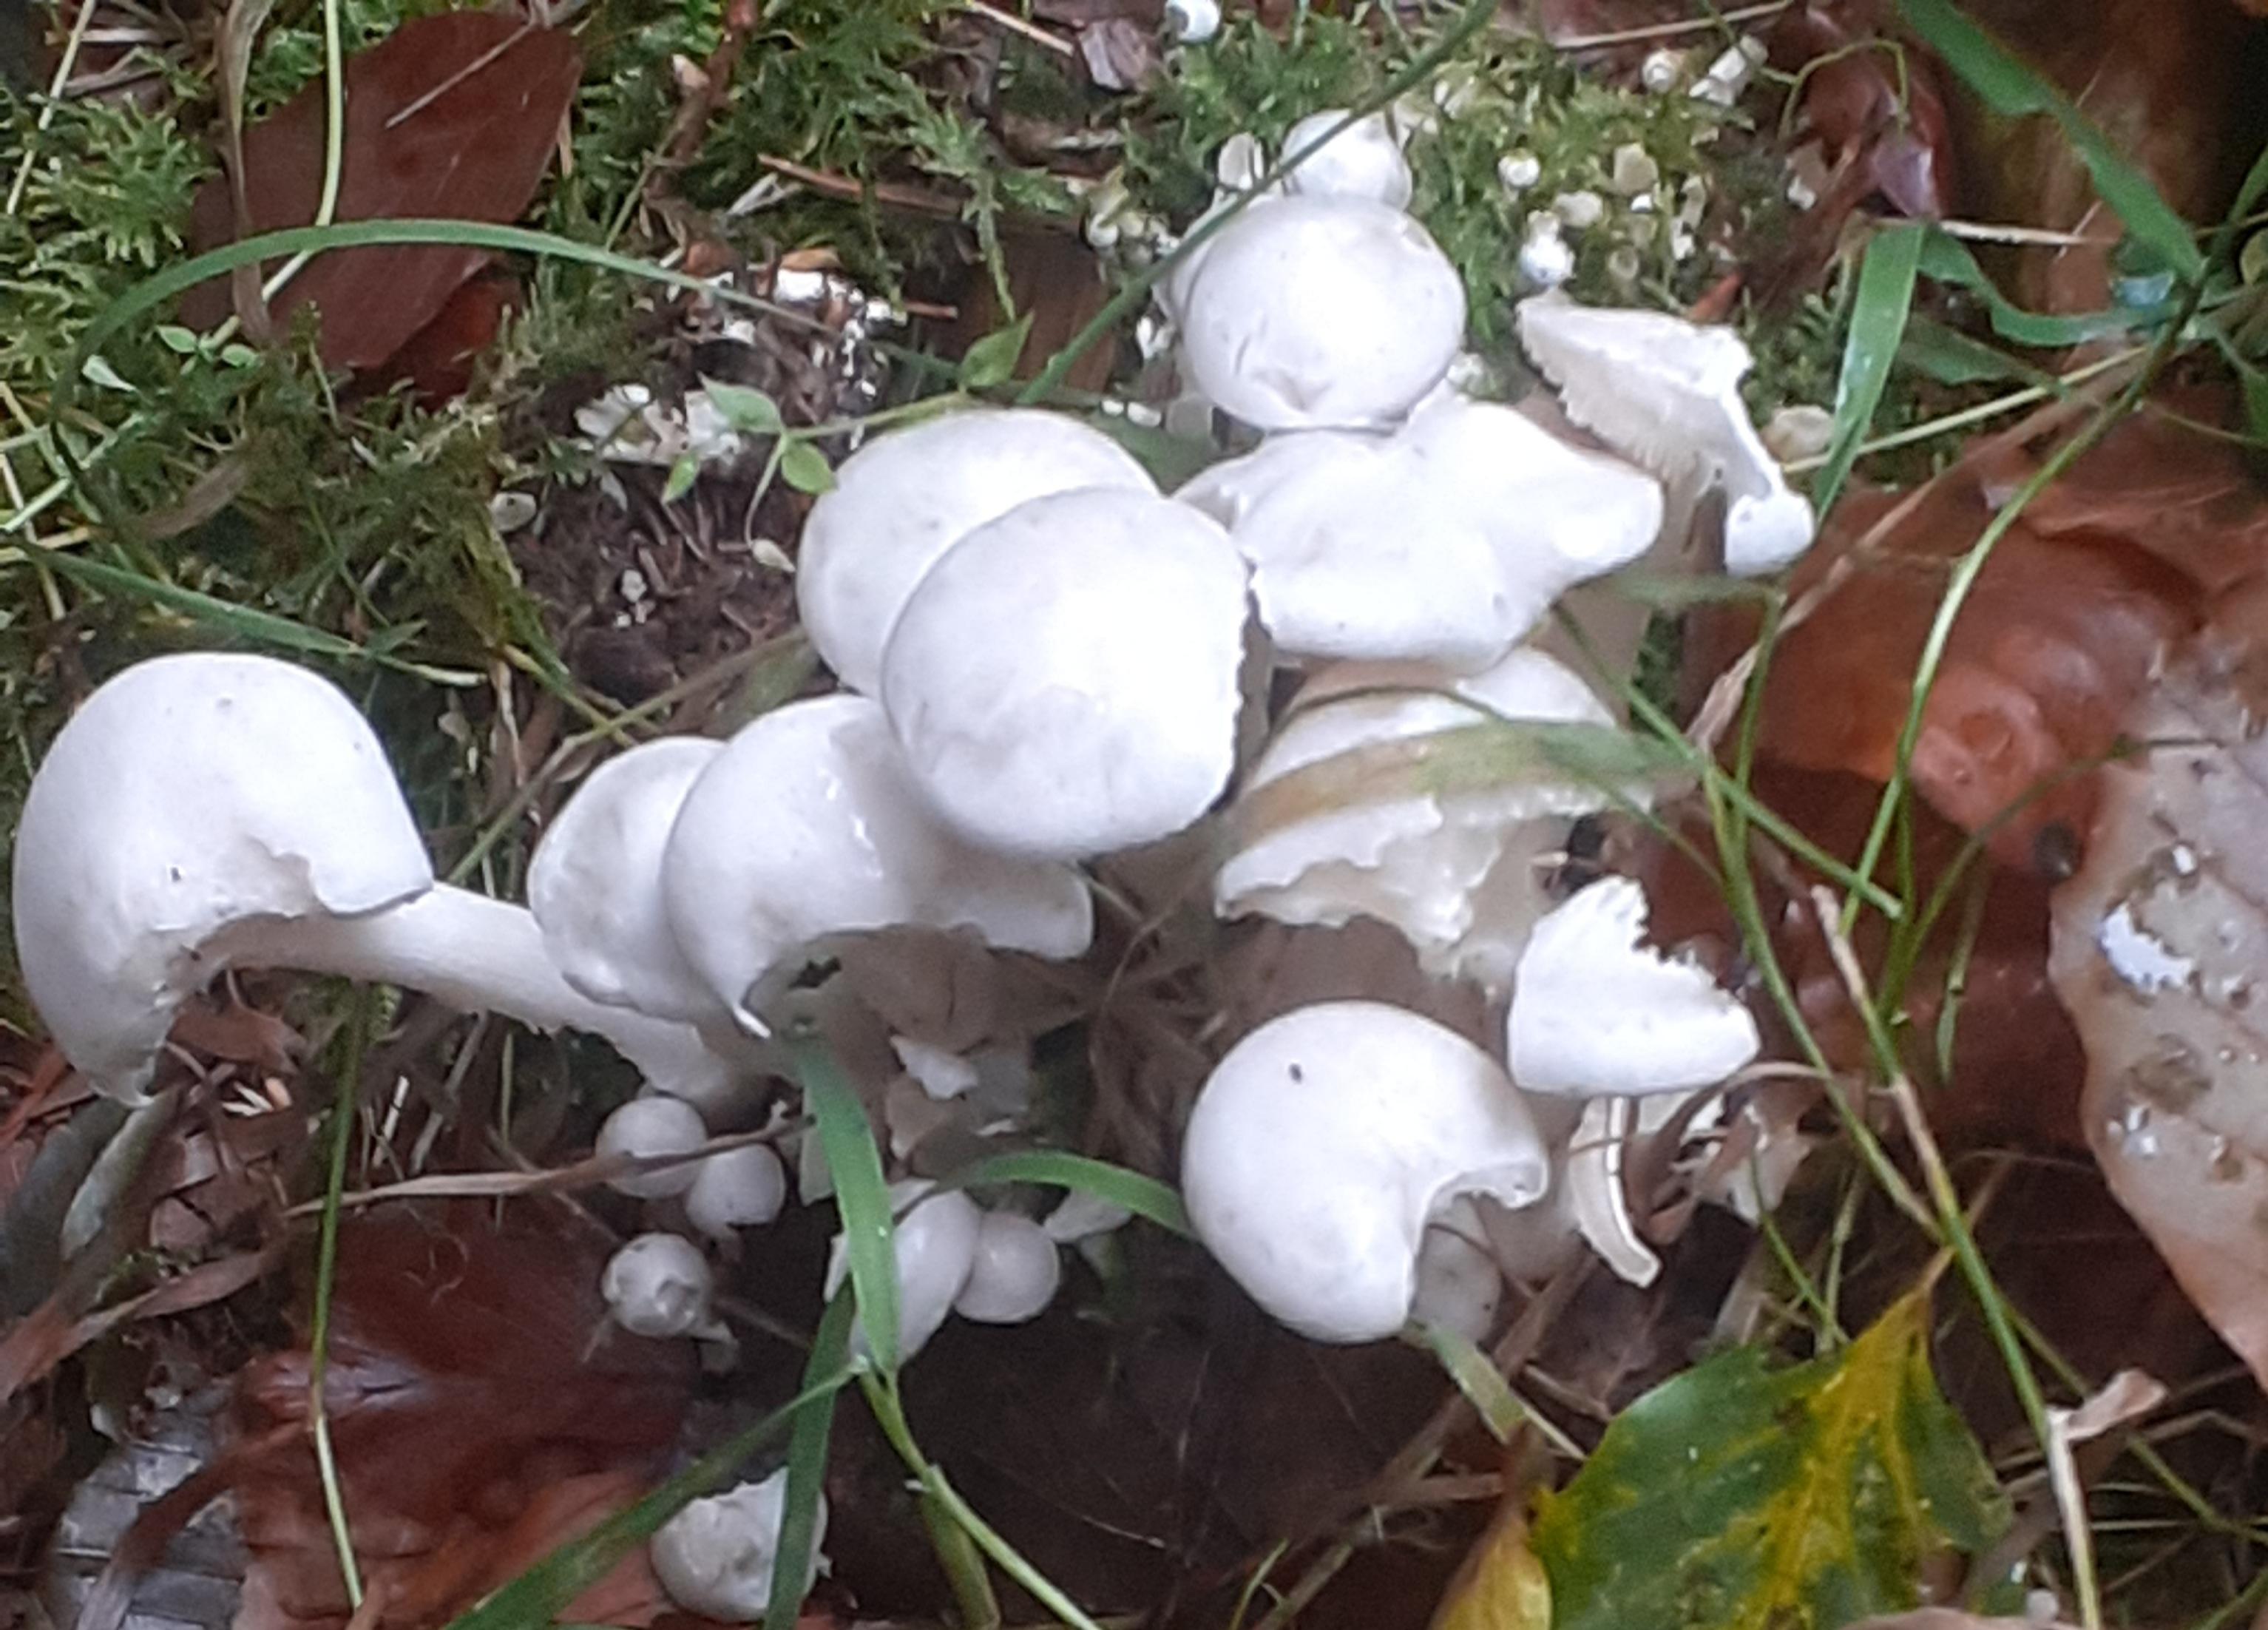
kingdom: Fungi
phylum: Basidiomycota
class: Agaricomycetes
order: Agaricales
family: Tricholomataceae
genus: Leucocybe
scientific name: Leucocybe connata
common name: knippe-tragthat
